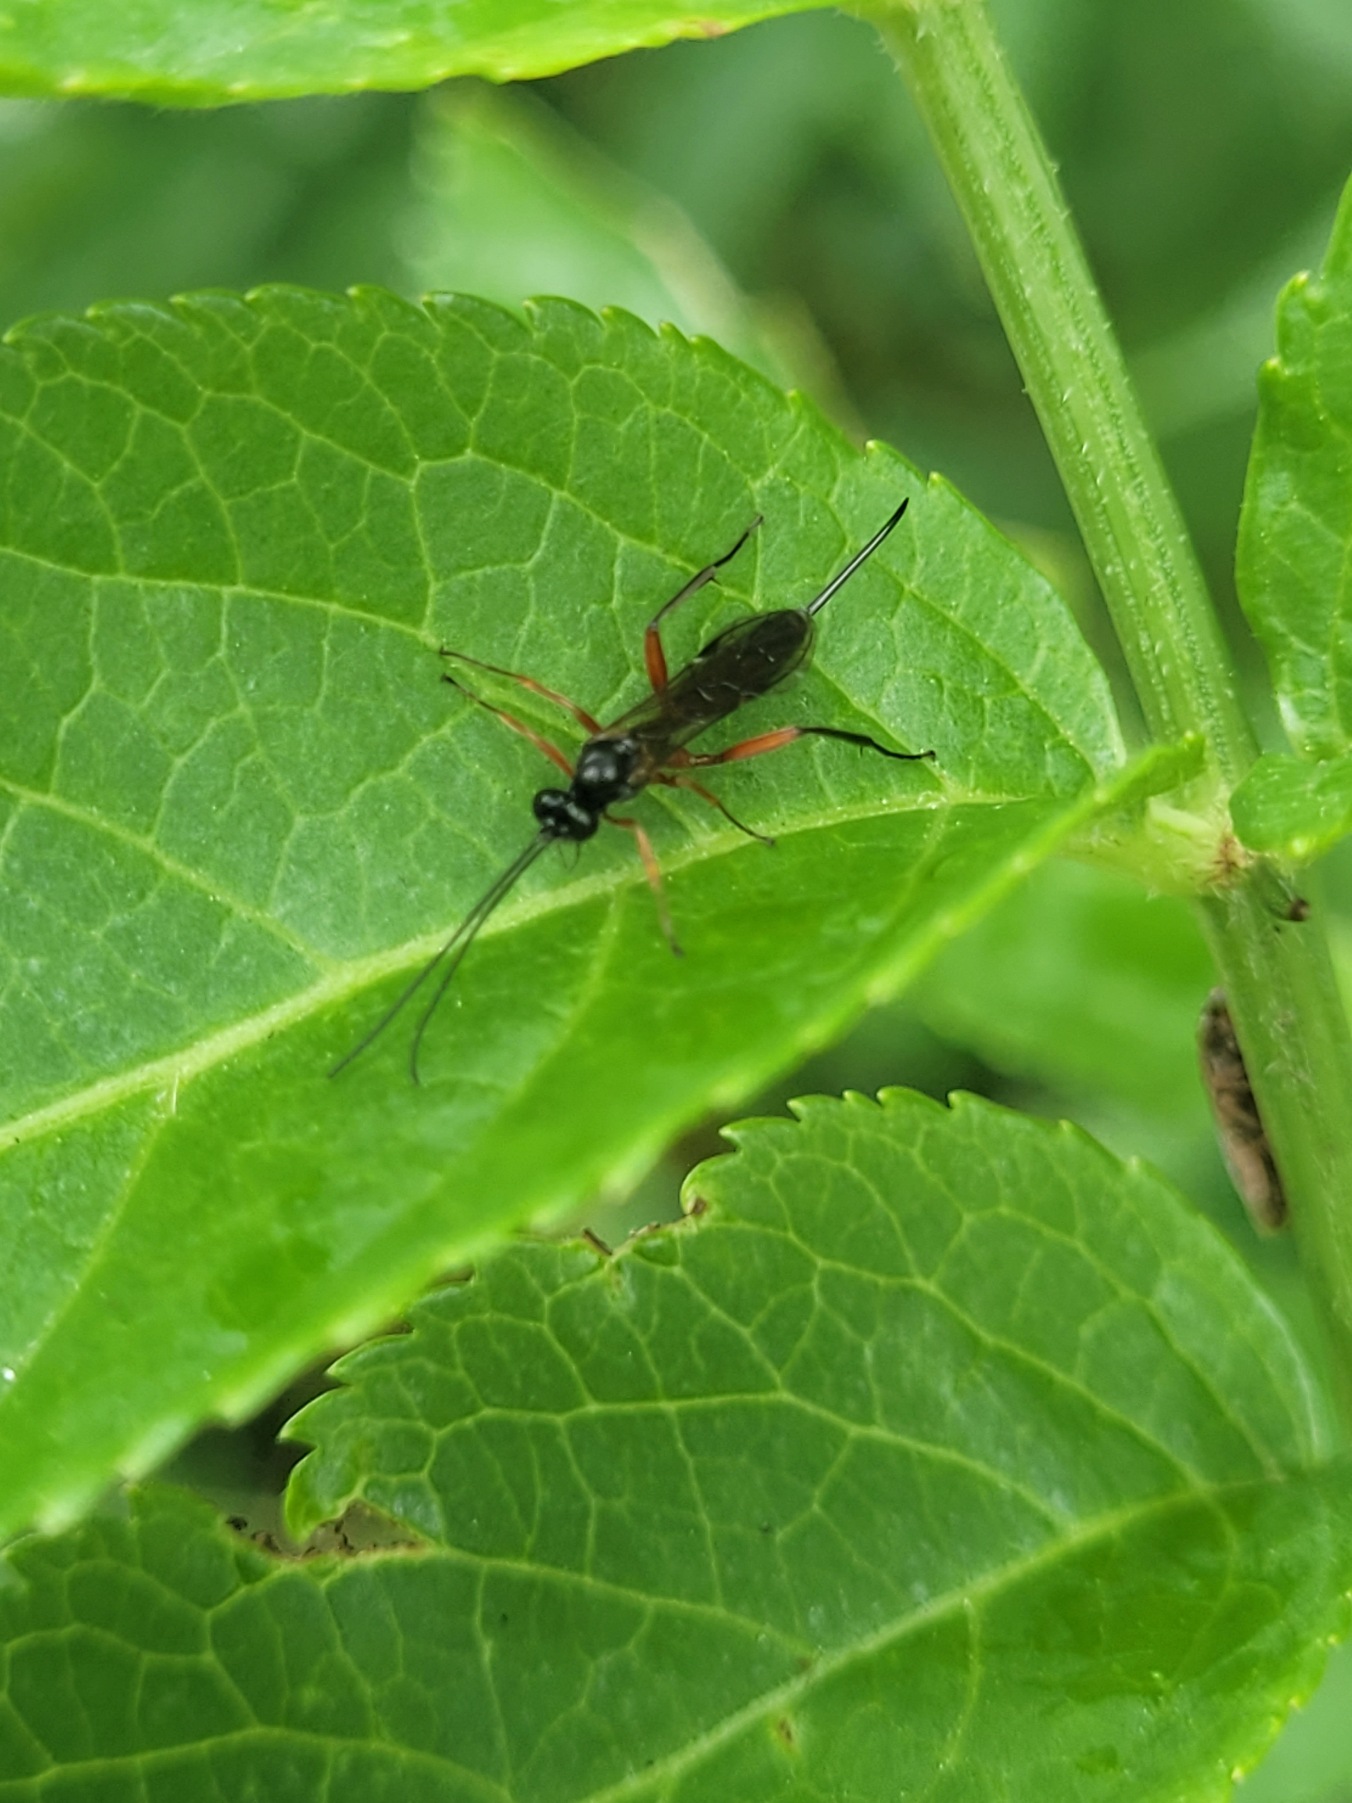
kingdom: Animalia
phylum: Arthropoda
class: Insecta
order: Hymenoptera
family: Ichneumonidae
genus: Cylloceria
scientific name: Cylloceria melancholica
